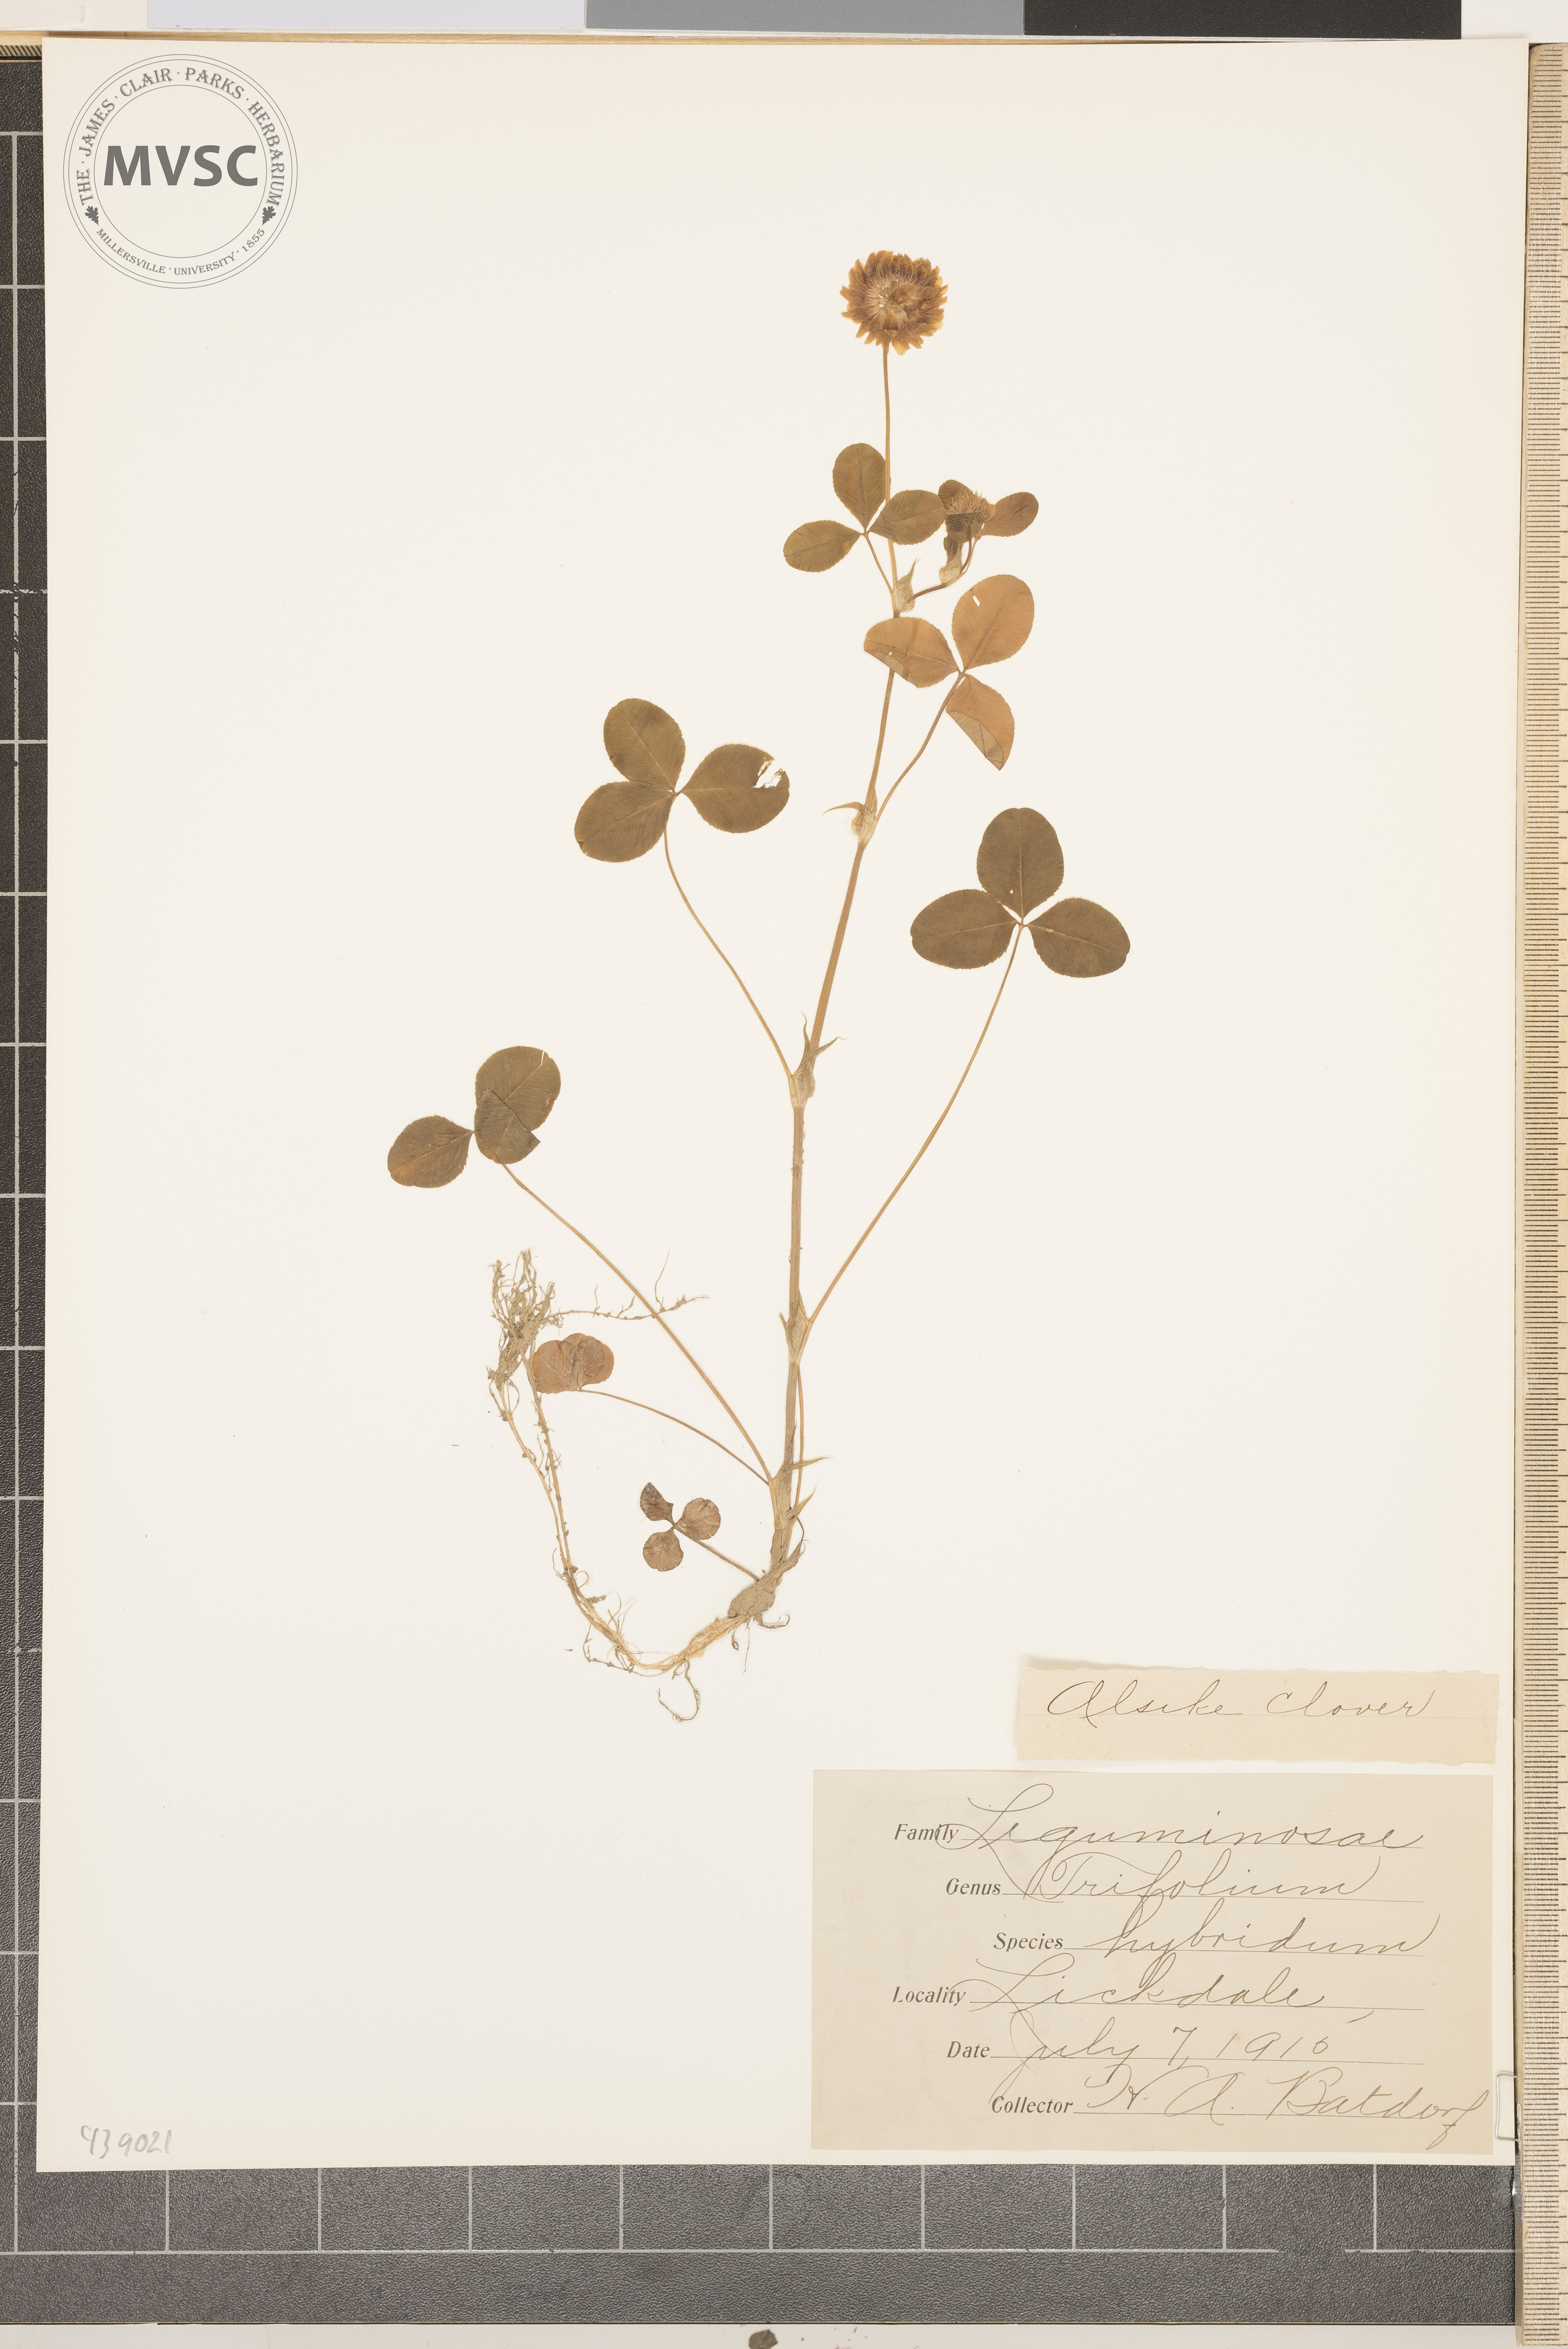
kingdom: Plantae
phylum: Tracheophyta
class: Magnoliopsida
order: Fabales
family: Fabaceae
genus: Trifolium
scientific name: Trifolium hybridum
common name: Alsike clover
